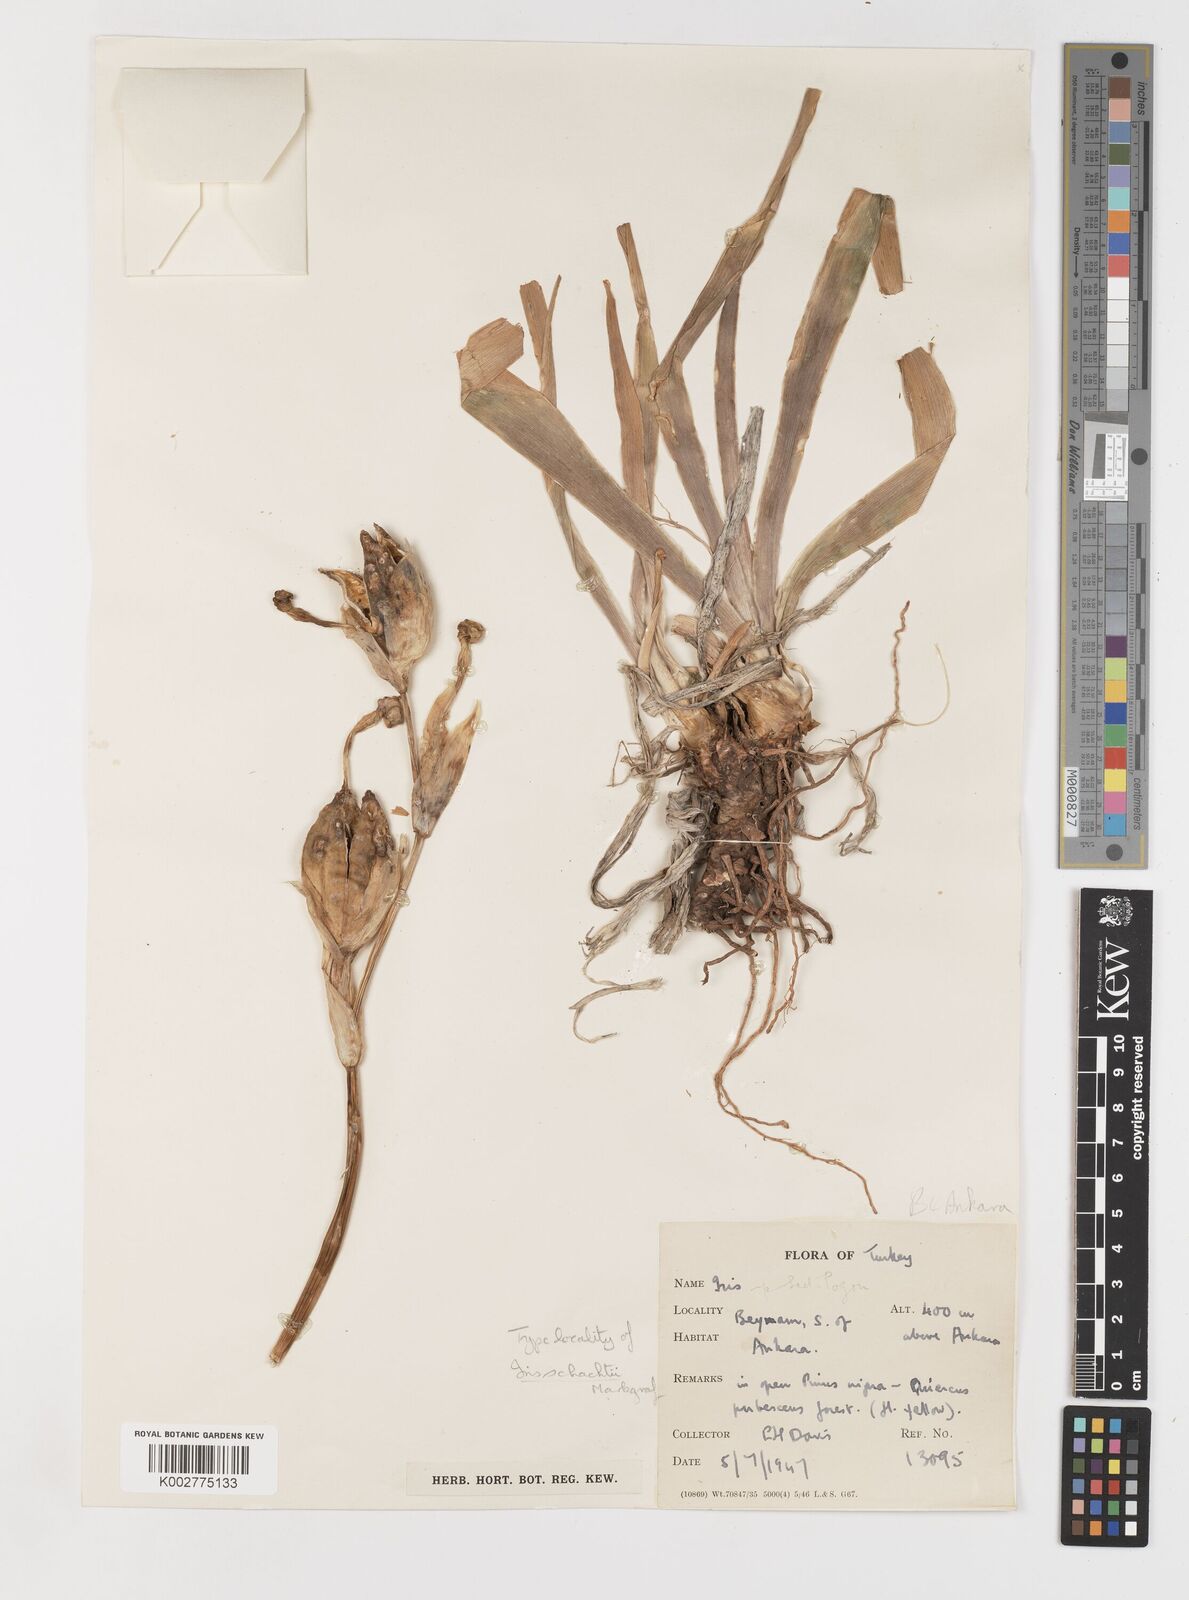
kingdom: Plantae
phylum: Tracheophyta
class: Liliopsida
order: Asparagales
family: Iridaceae
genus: Iris
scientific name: Iris schachtii
